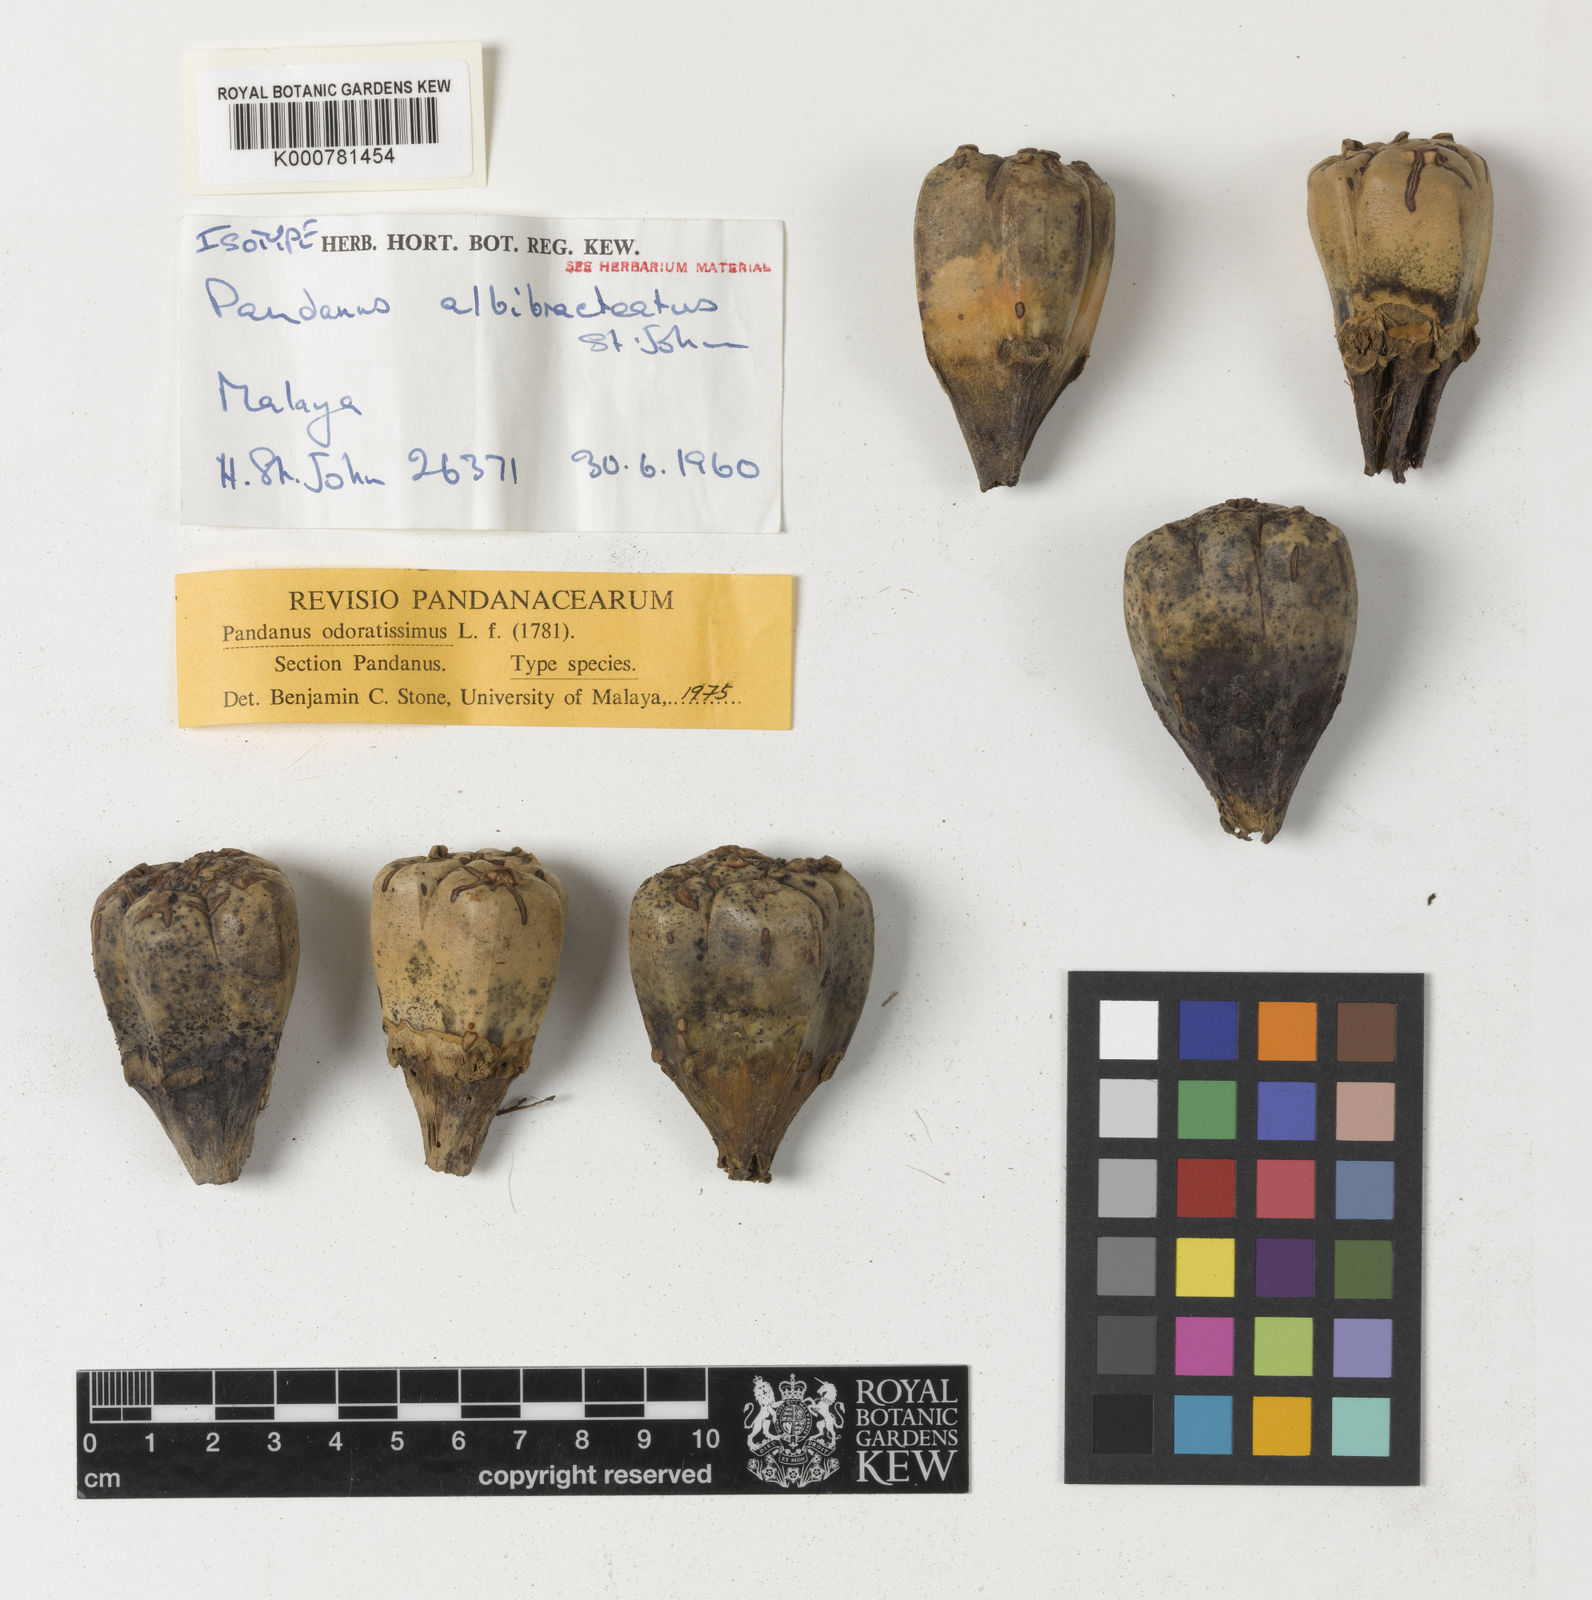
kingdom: Plantae
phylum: Tracheophyta
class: Liliopsida
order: Pandanales
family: Pandanaceae
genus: Pandanus
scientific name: Pandanus odorifer
